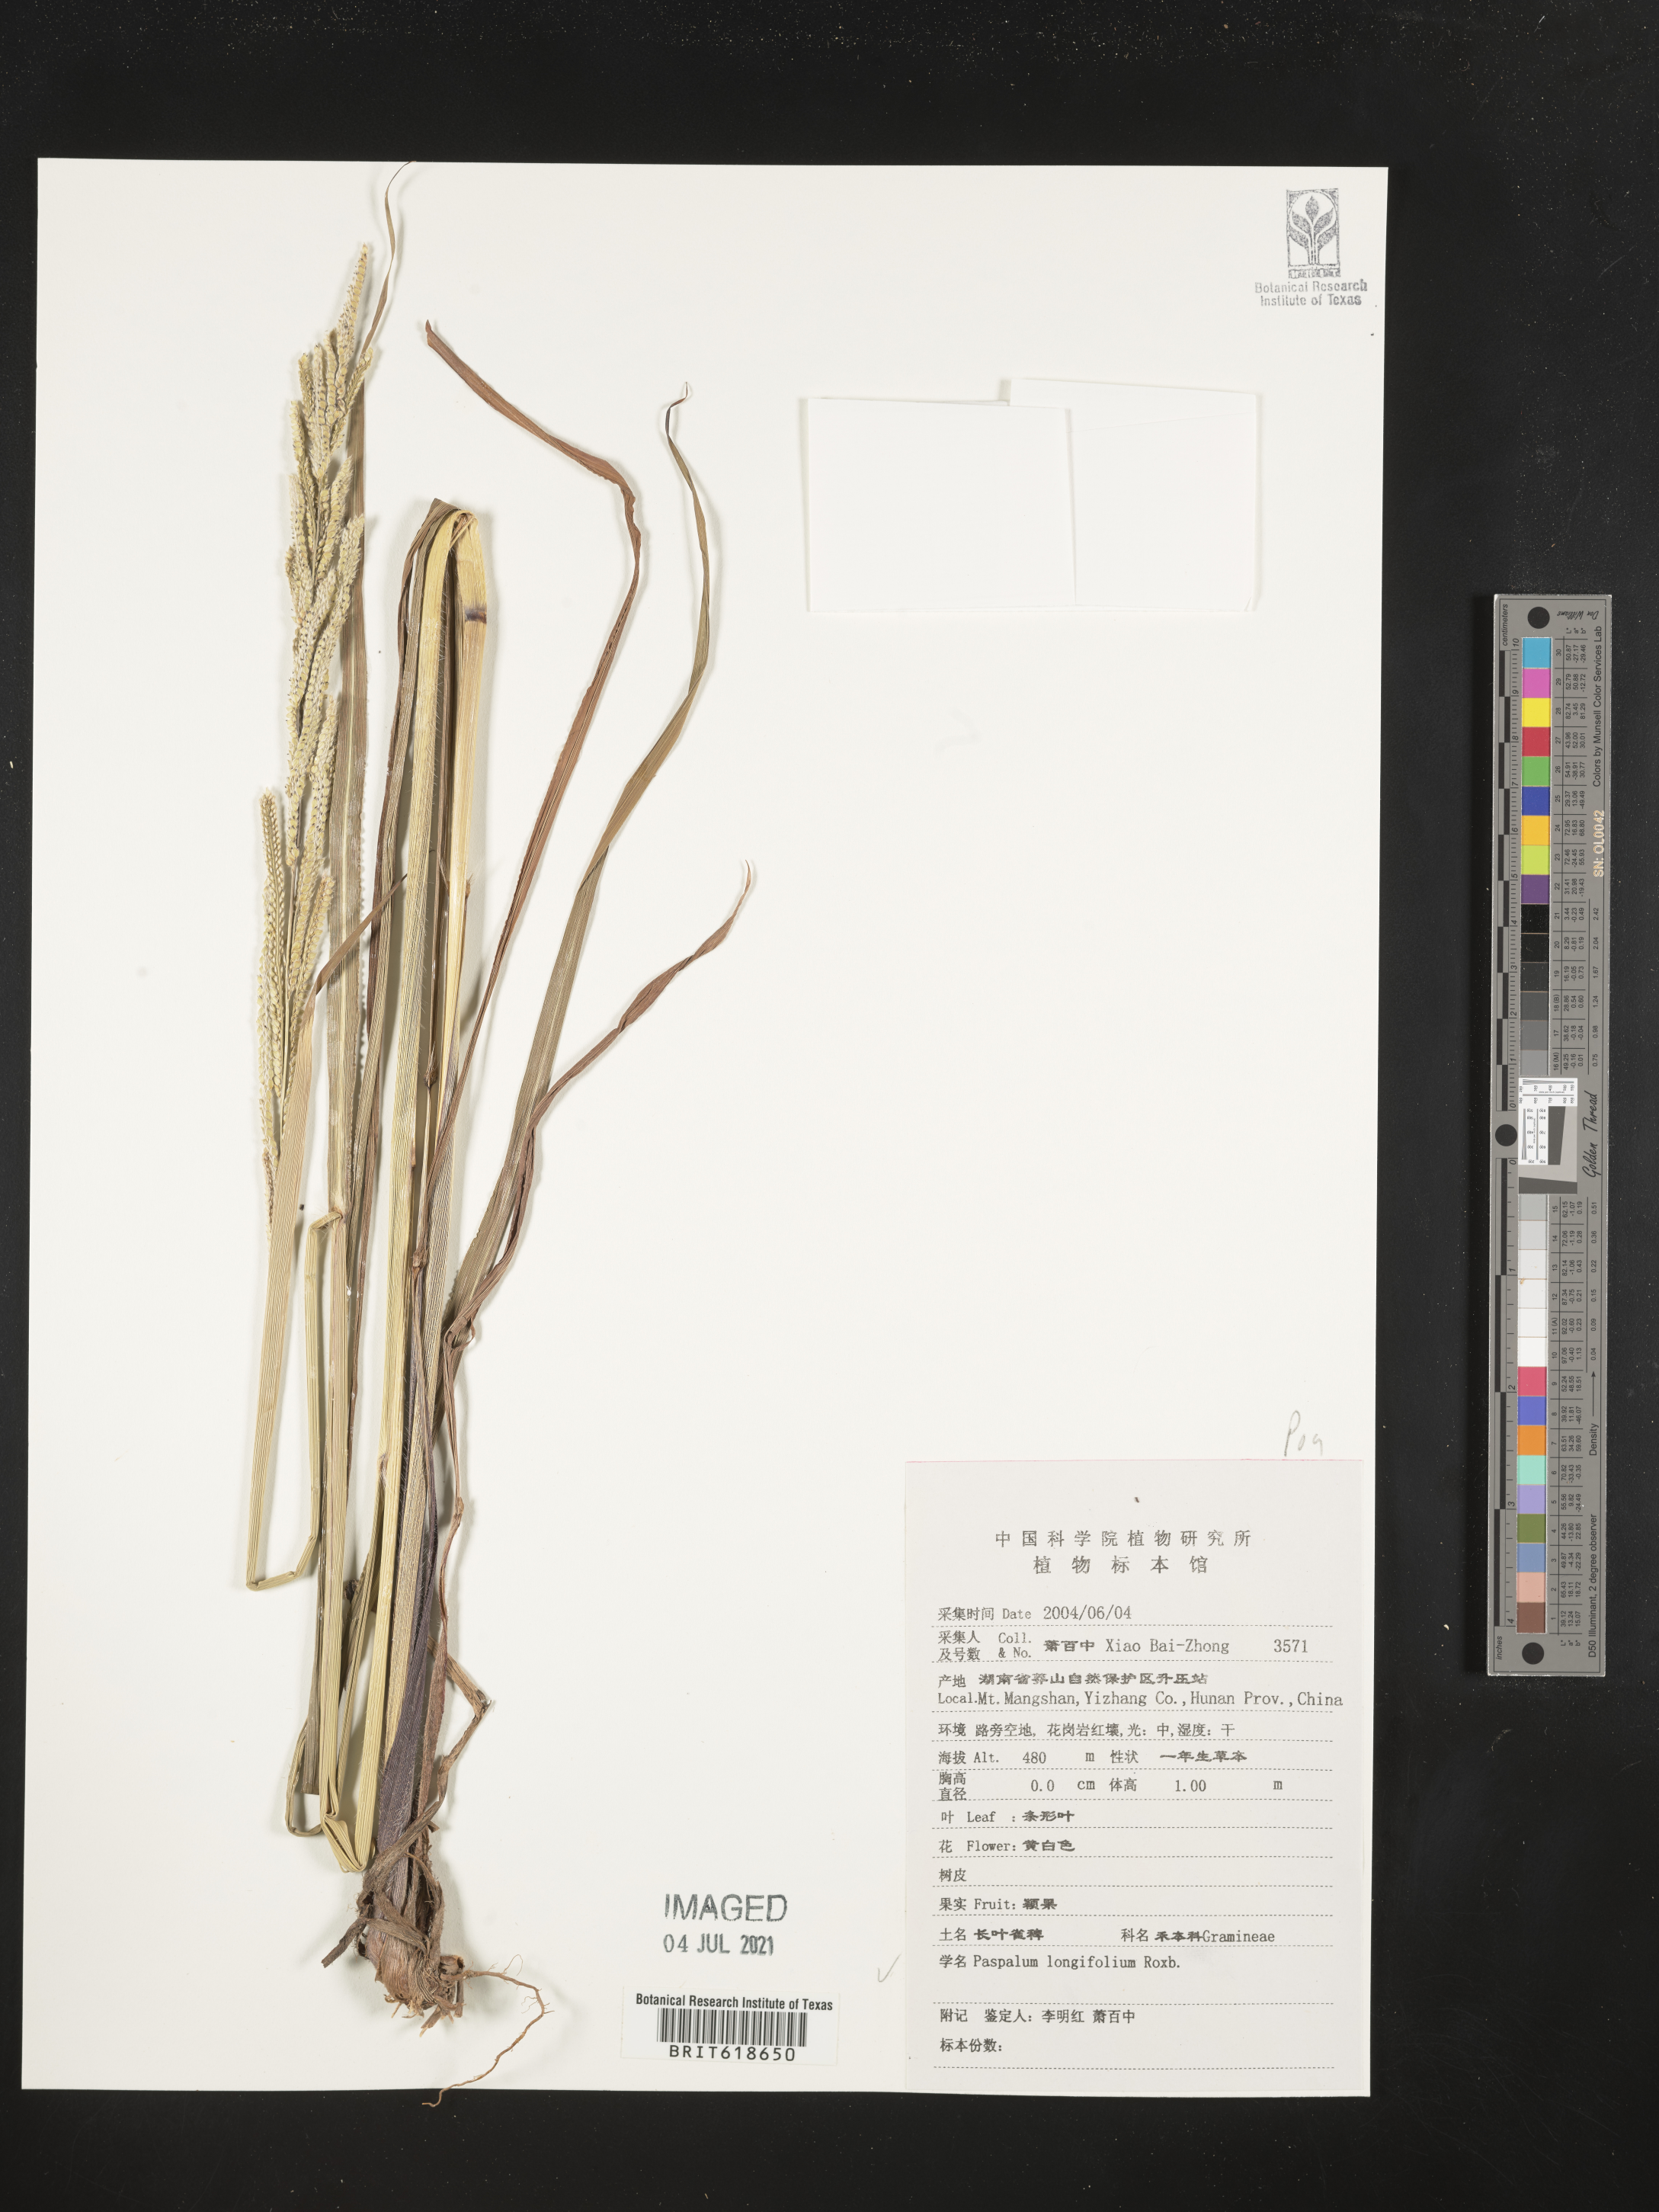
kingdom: Plantae
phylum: Tracheophyta
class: Liliopsida
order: Poales
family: Poaceae
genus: Paspalum
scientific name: Paspalum sumatrense
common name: Long-leaved paspalum
